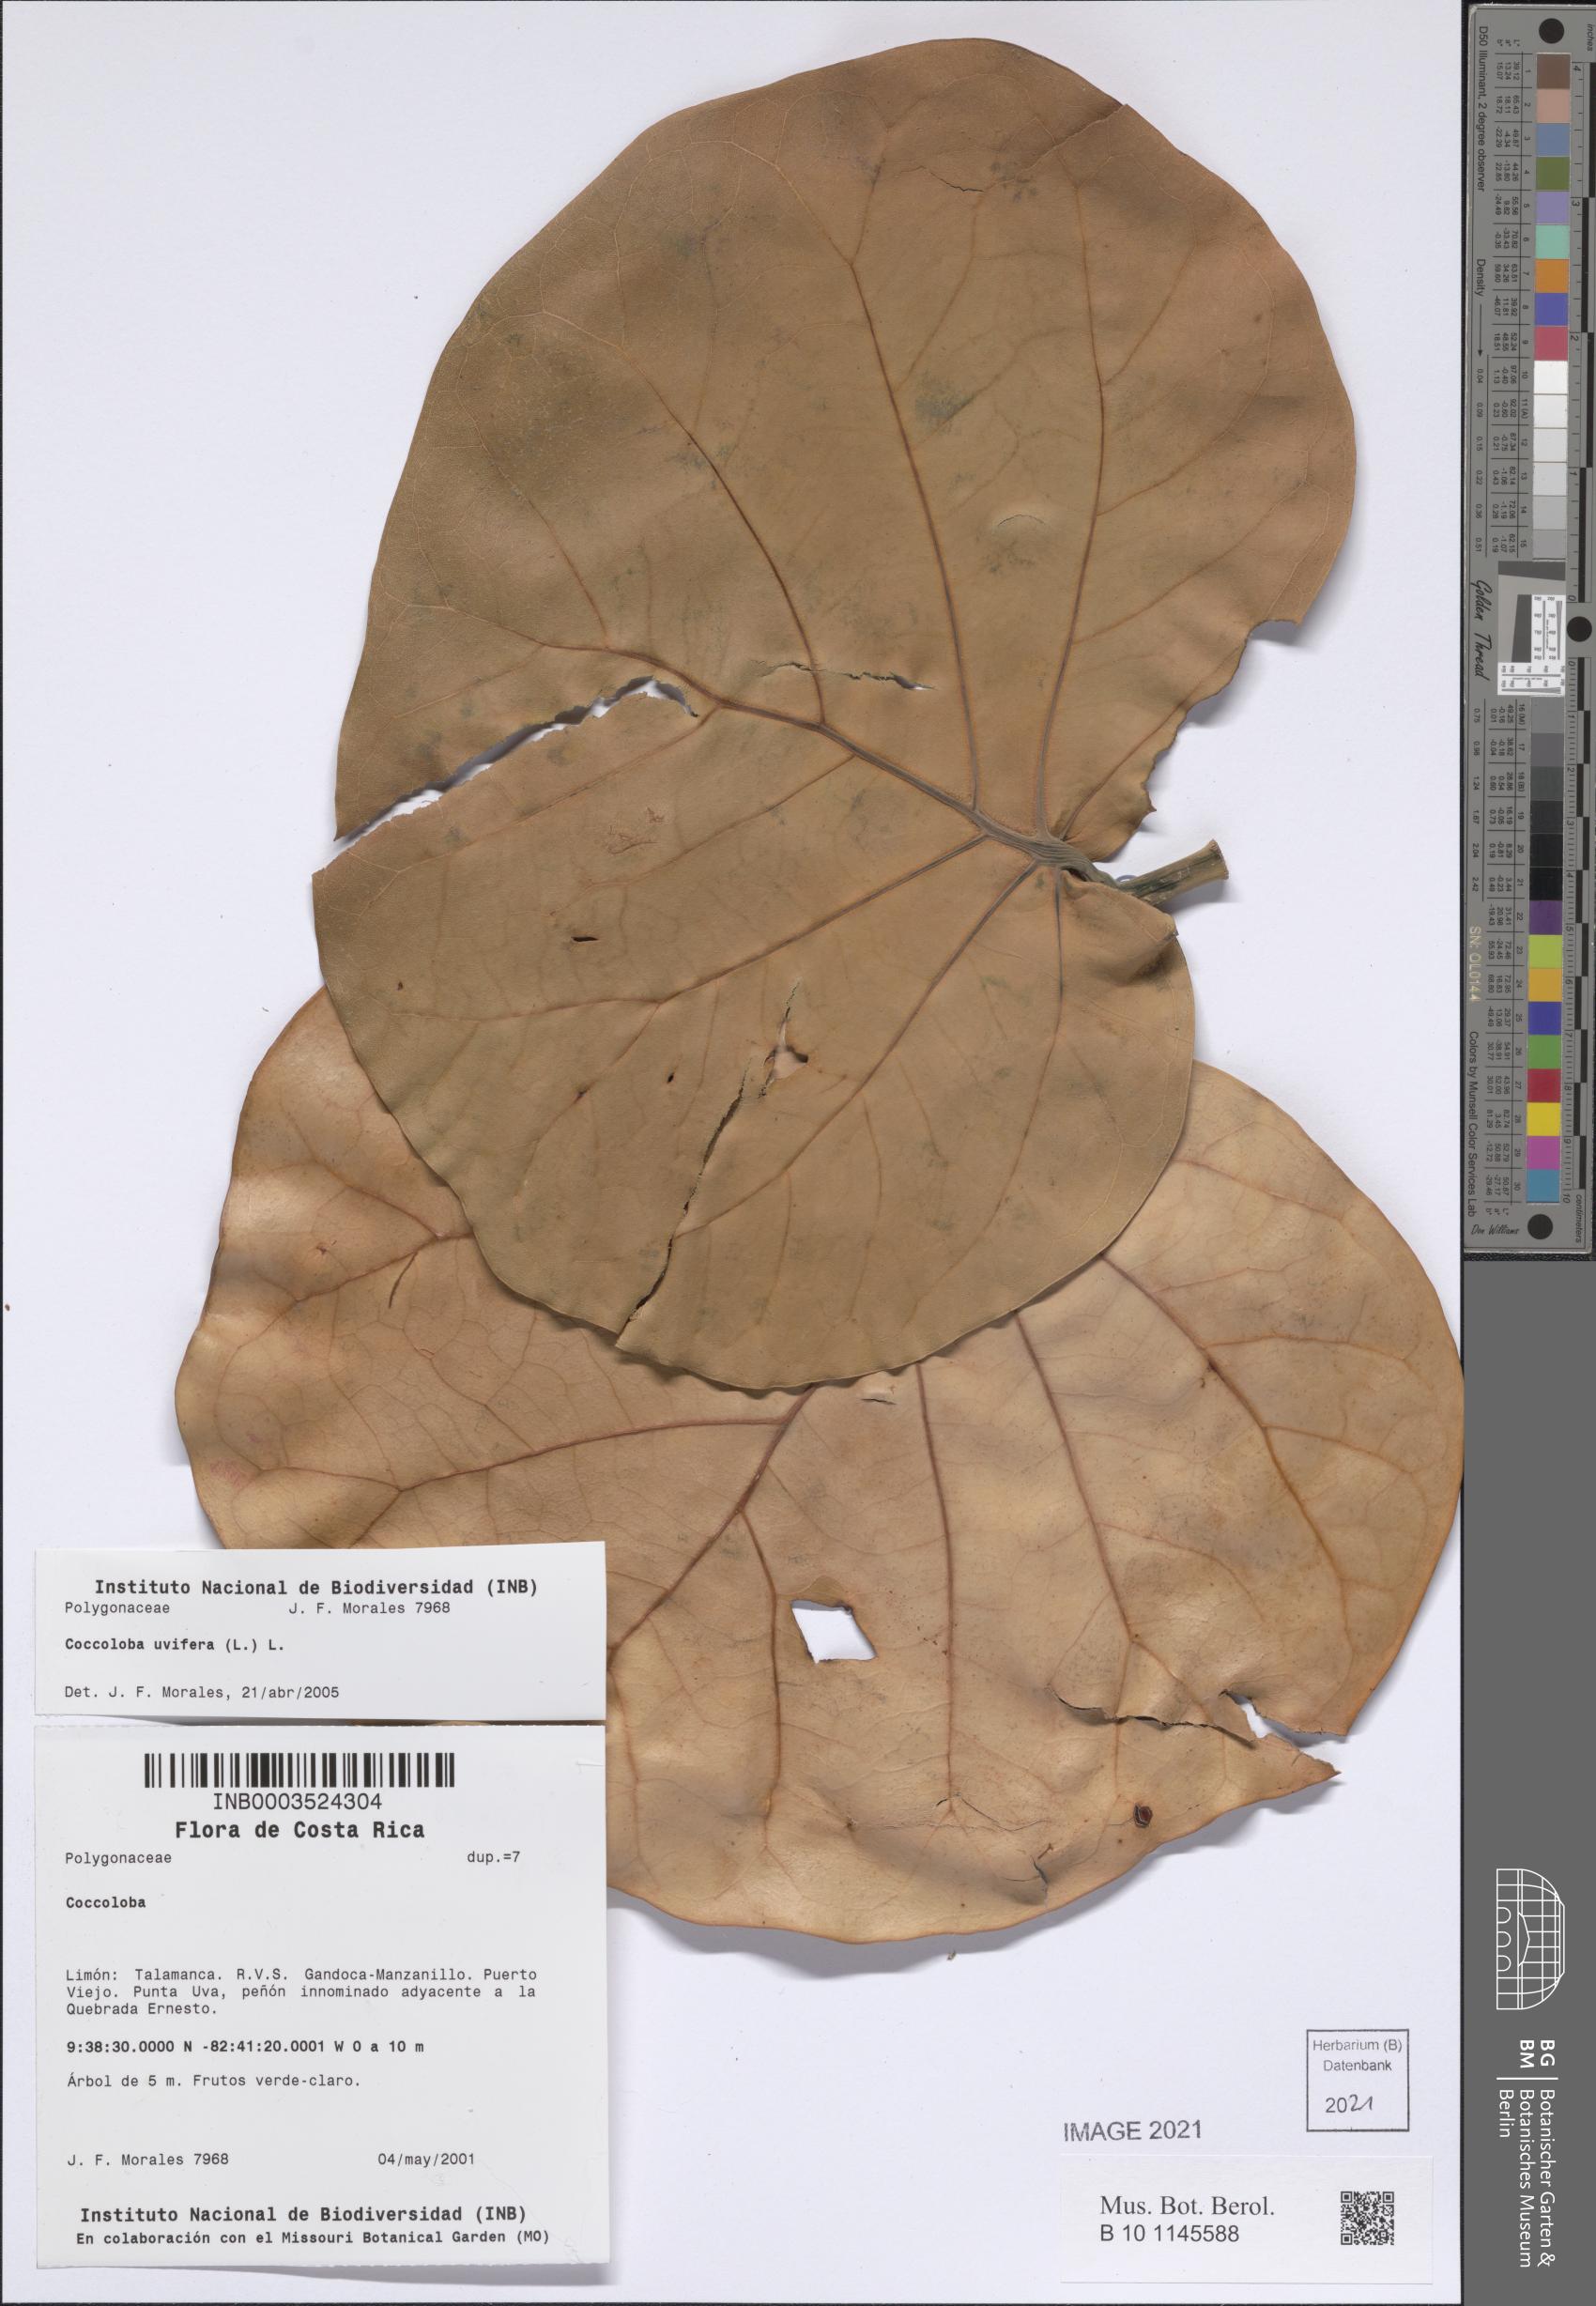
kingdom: Plantae
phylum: Tracheophyta
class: Magnoliopsida
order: Caryophyllales
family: Polygonaceae
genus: Coccoloba
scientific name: Coccoloba uvifera
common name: Seagrape
